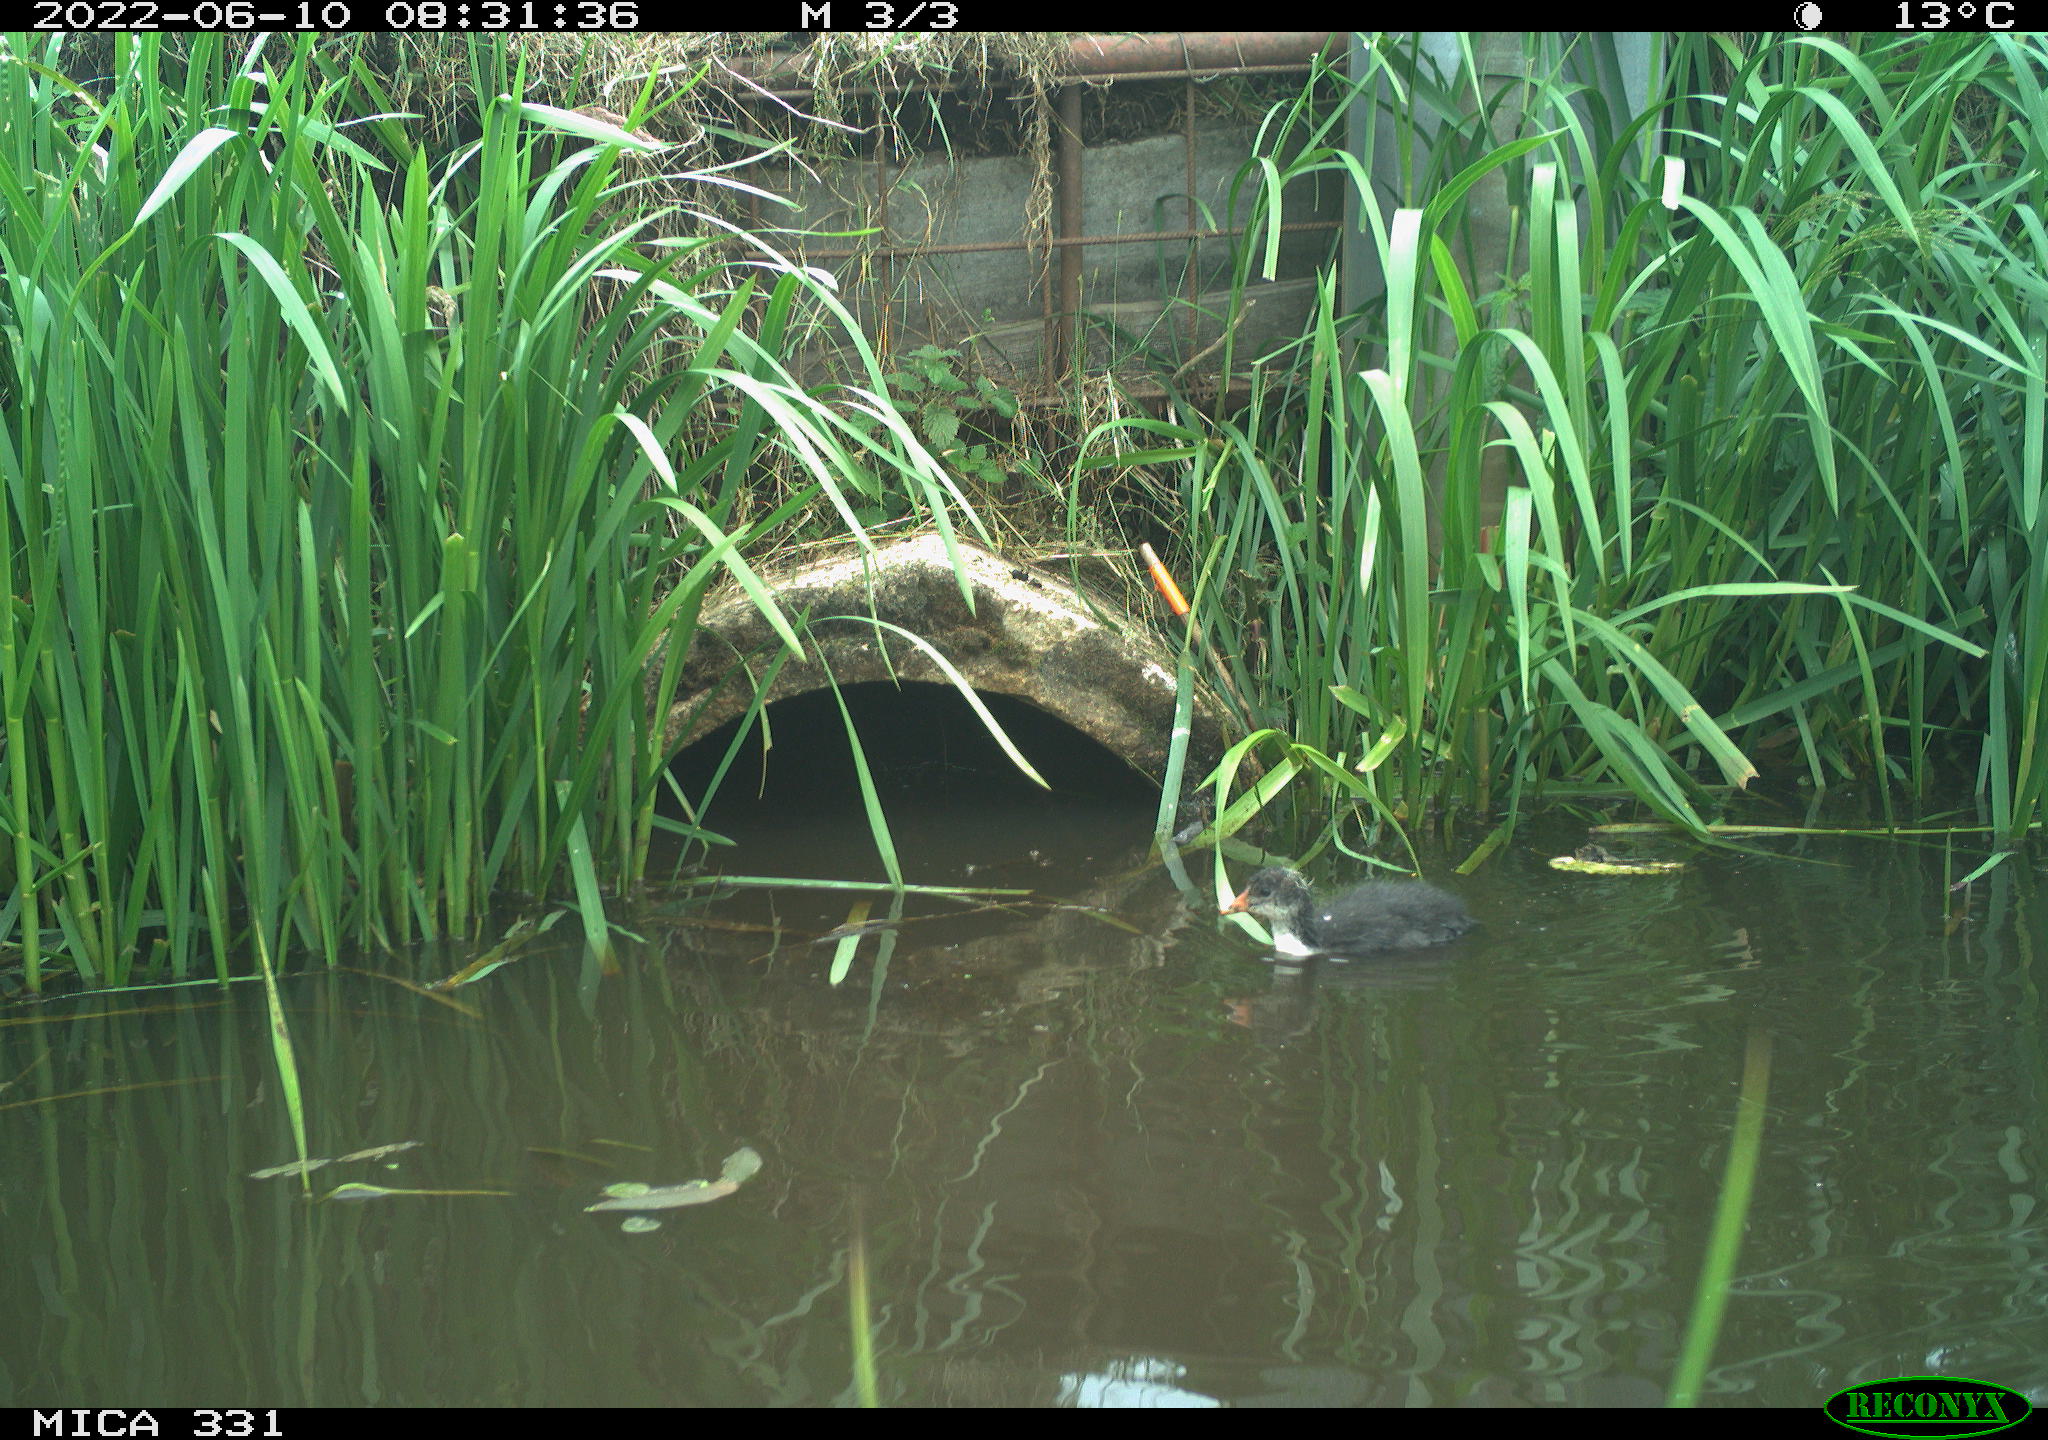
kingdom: Animalia
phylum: Chordata
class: Aves
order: Gruiformes
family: Rallidae
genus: Fulica
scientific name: Fulica atra
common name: Eurasian coot
